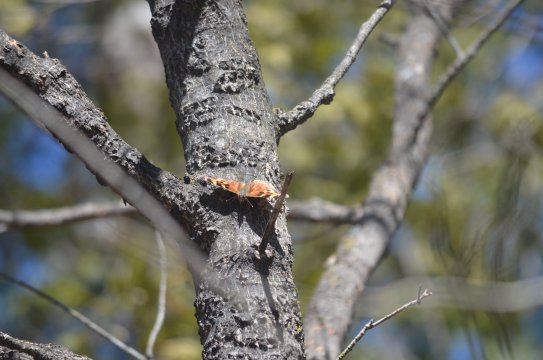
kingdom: Animalia
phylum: Arthropoda
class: Insecta
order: Lepidoptera
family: Nymphalidae
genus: Polygonia
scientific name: Polygonia vaualbum
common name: Compton Tortoiseshell
